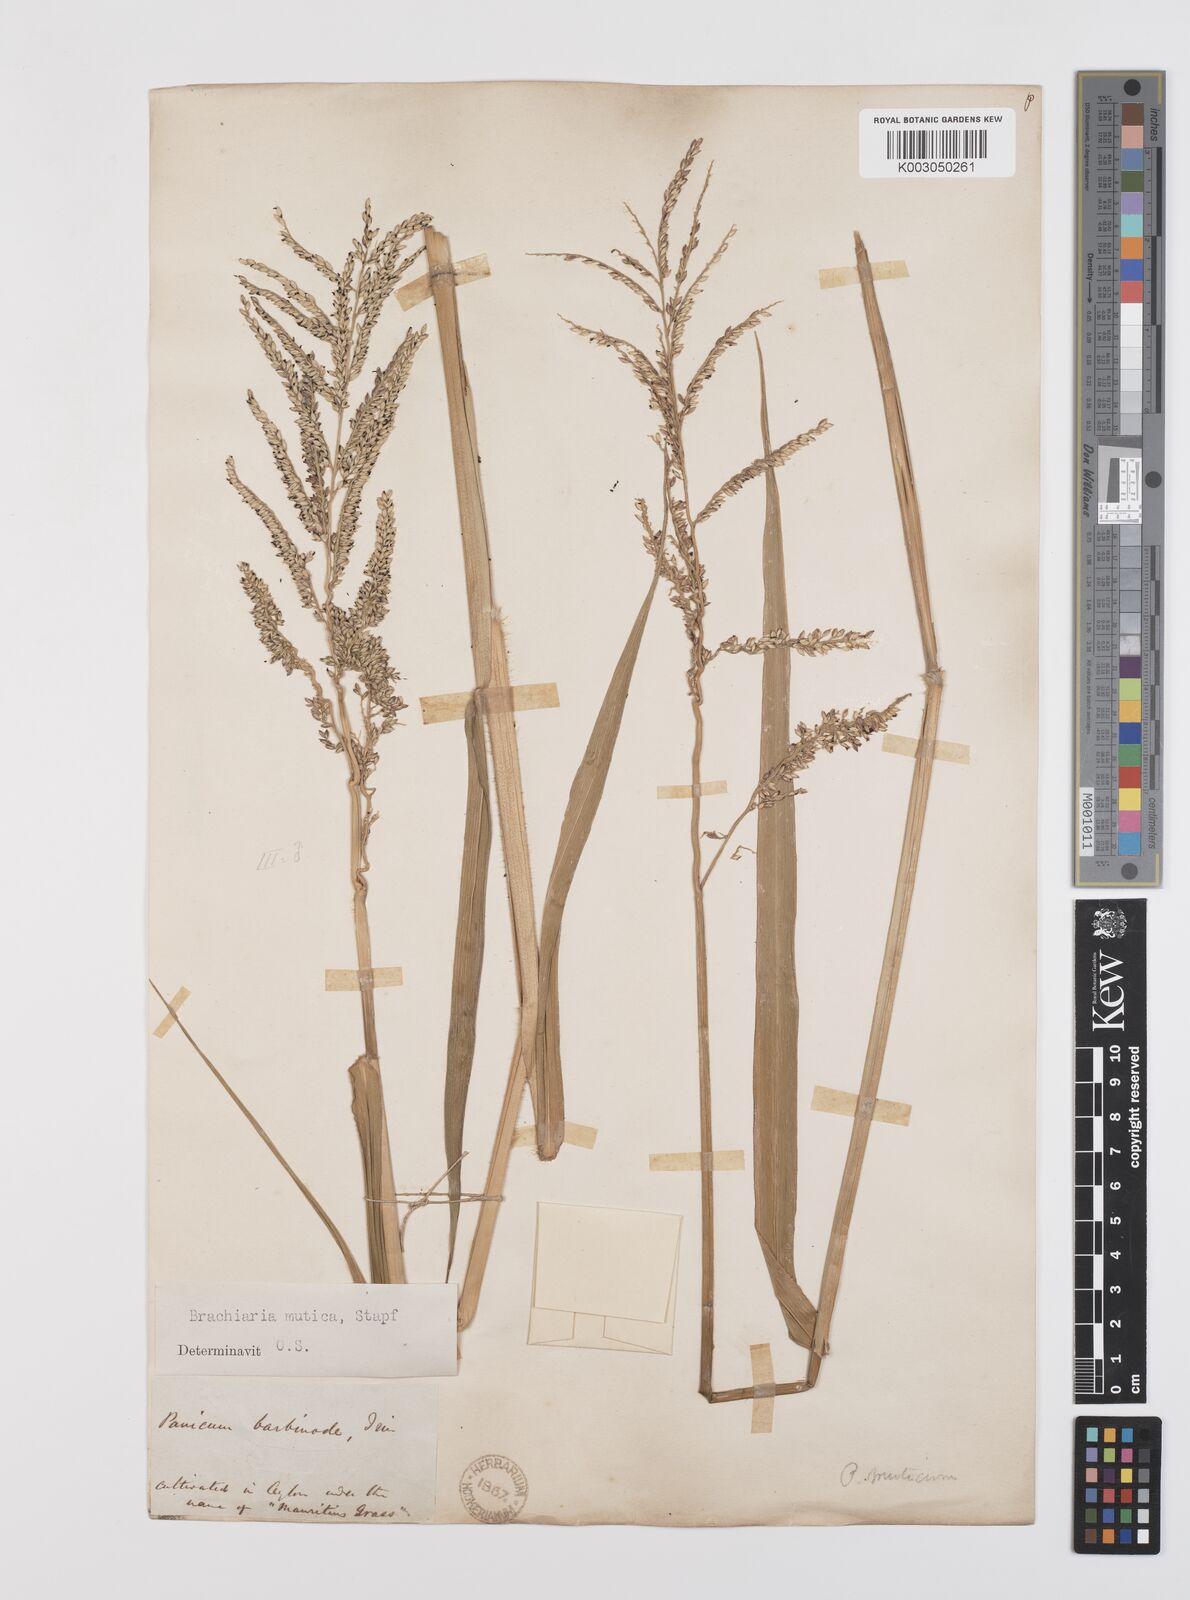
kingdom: Plantae
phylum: Tracheophyta
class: Liliopsida
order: Poales
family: Poaceae
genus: Urochloa
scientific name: Urochloa mutica
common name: Para grass
